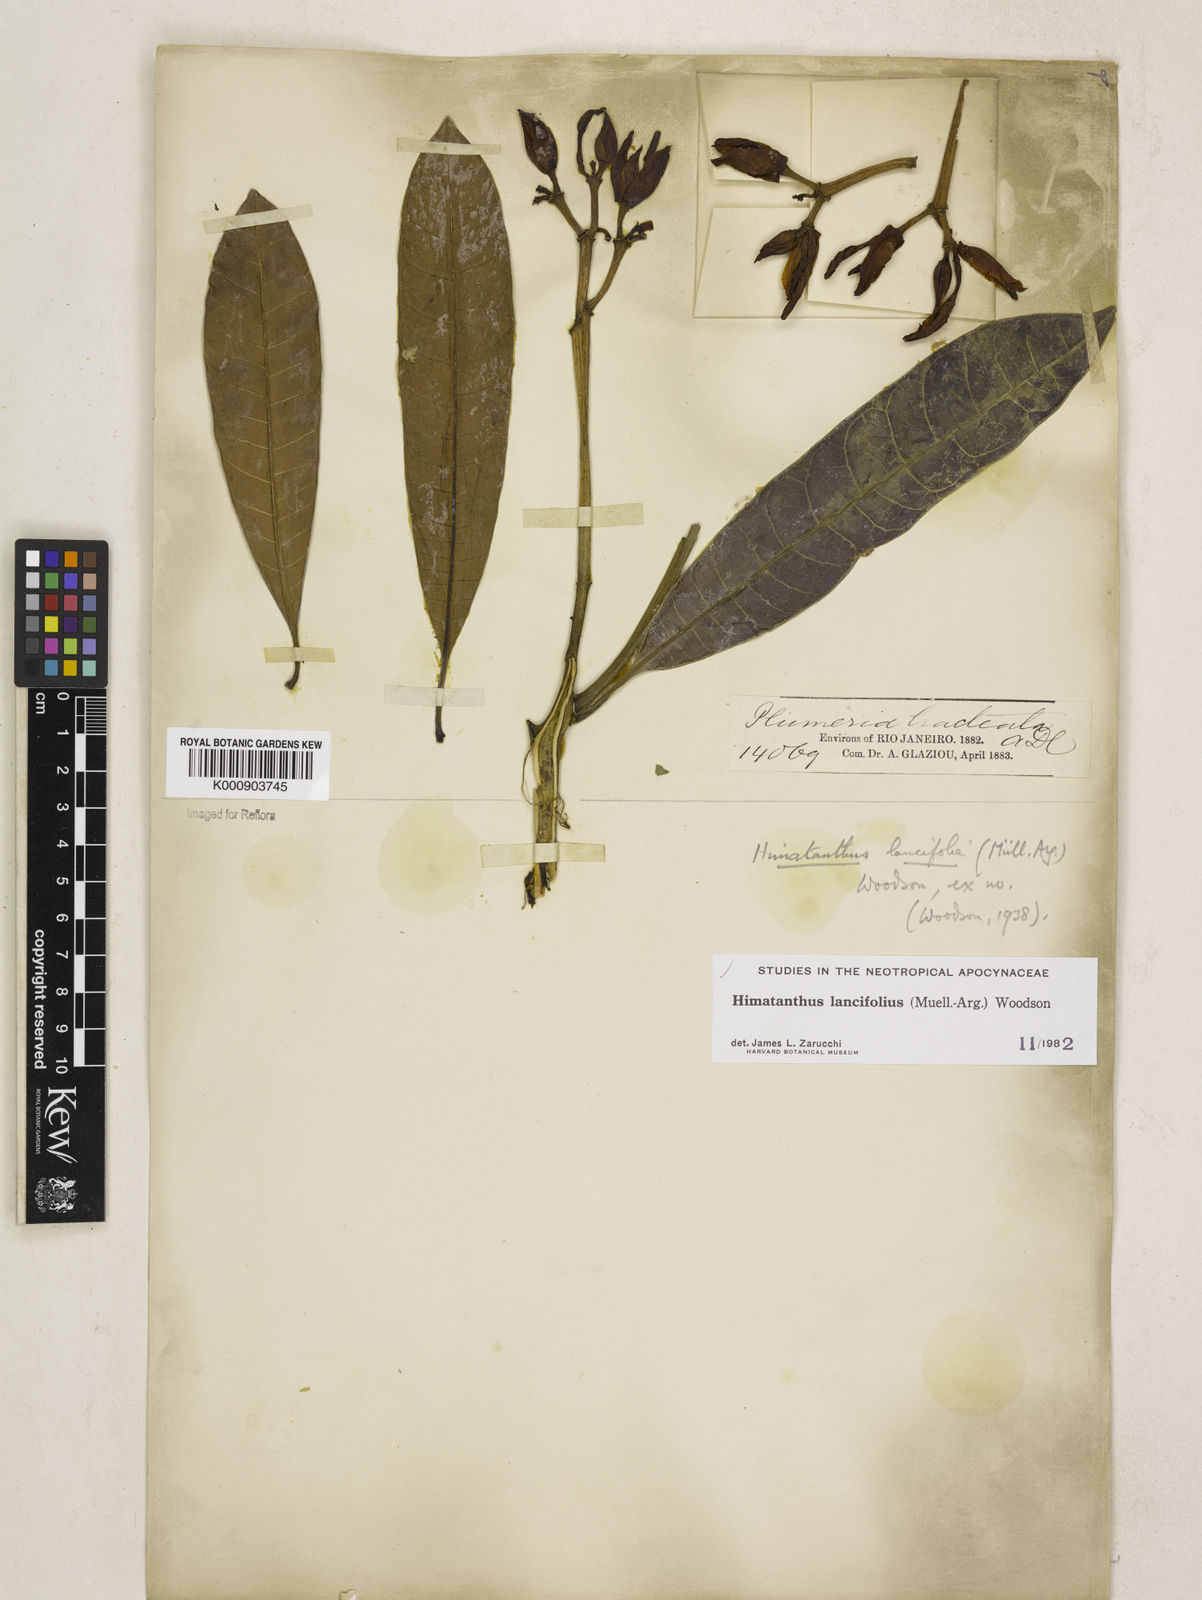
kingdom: Plantae
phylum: Tracheophyta
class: Magnoliopsida
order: Gentianales
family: Apocynaceae
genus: Himatanthus
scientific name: Himatanthus
